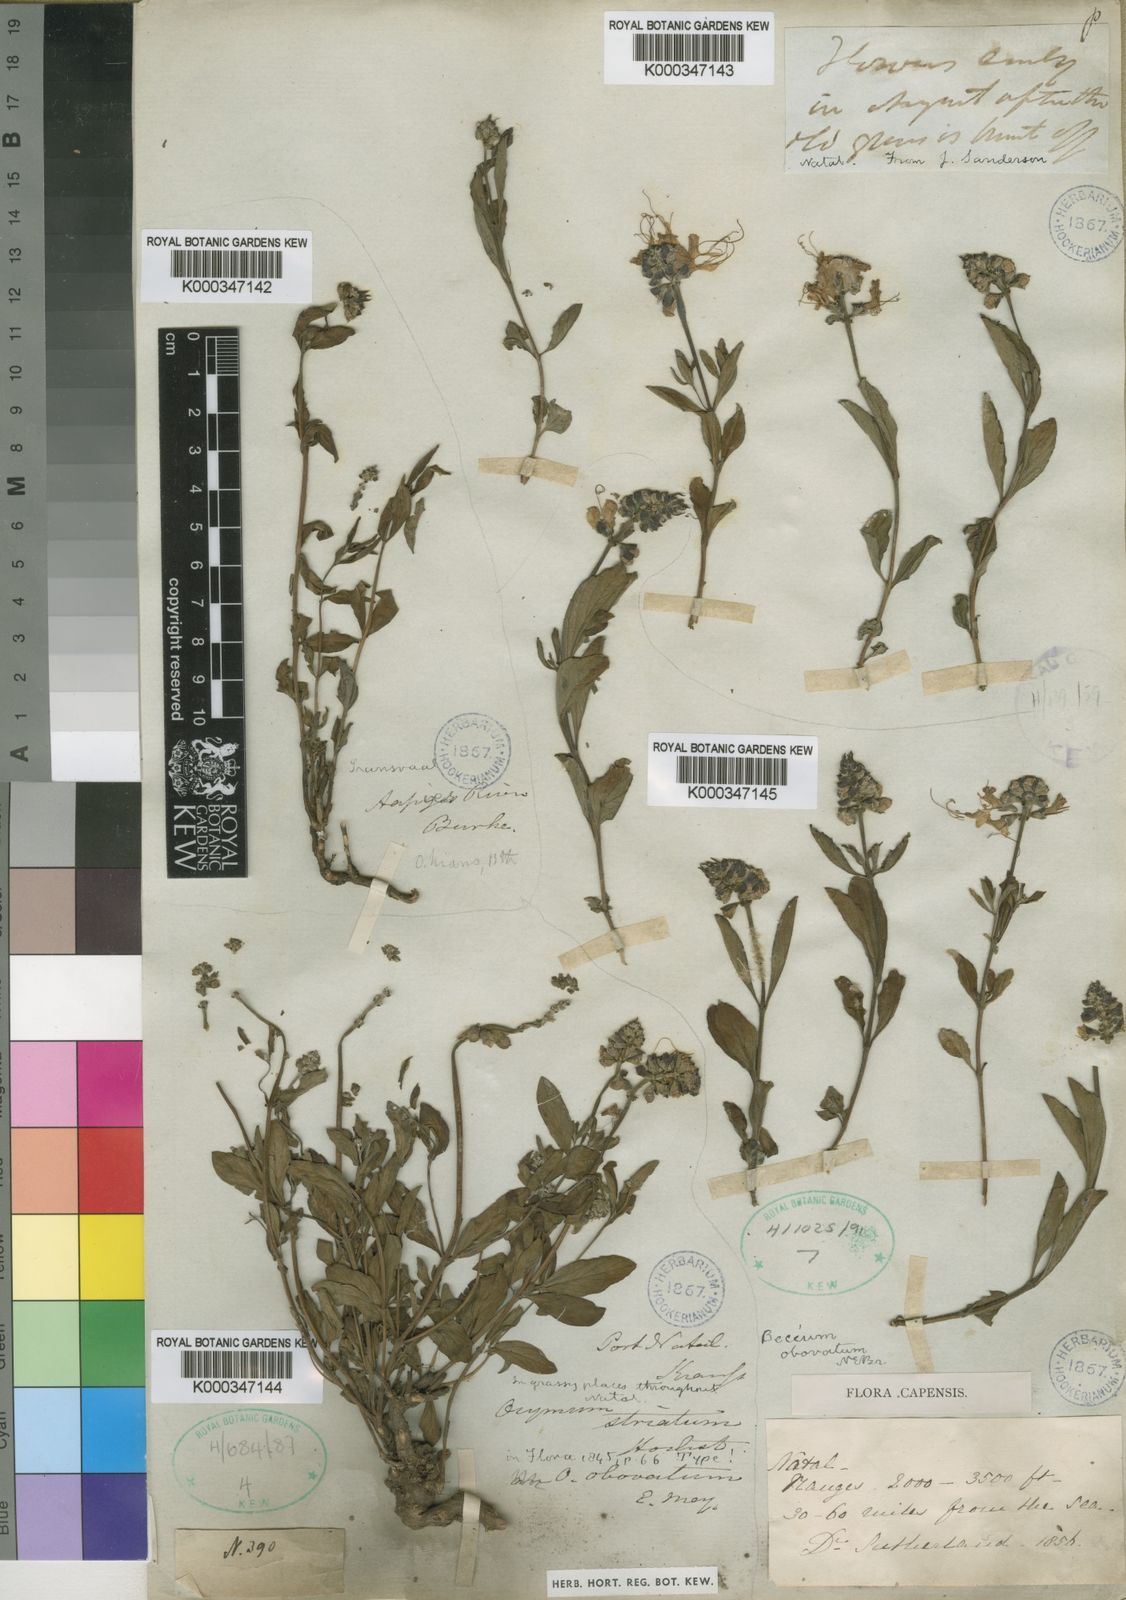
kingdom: Plantae
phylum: Tracheophyta
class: Magnoliopsida
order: Lamiales
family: Lamiaceae
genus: Ocimum
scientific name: Ocimum obovatum
